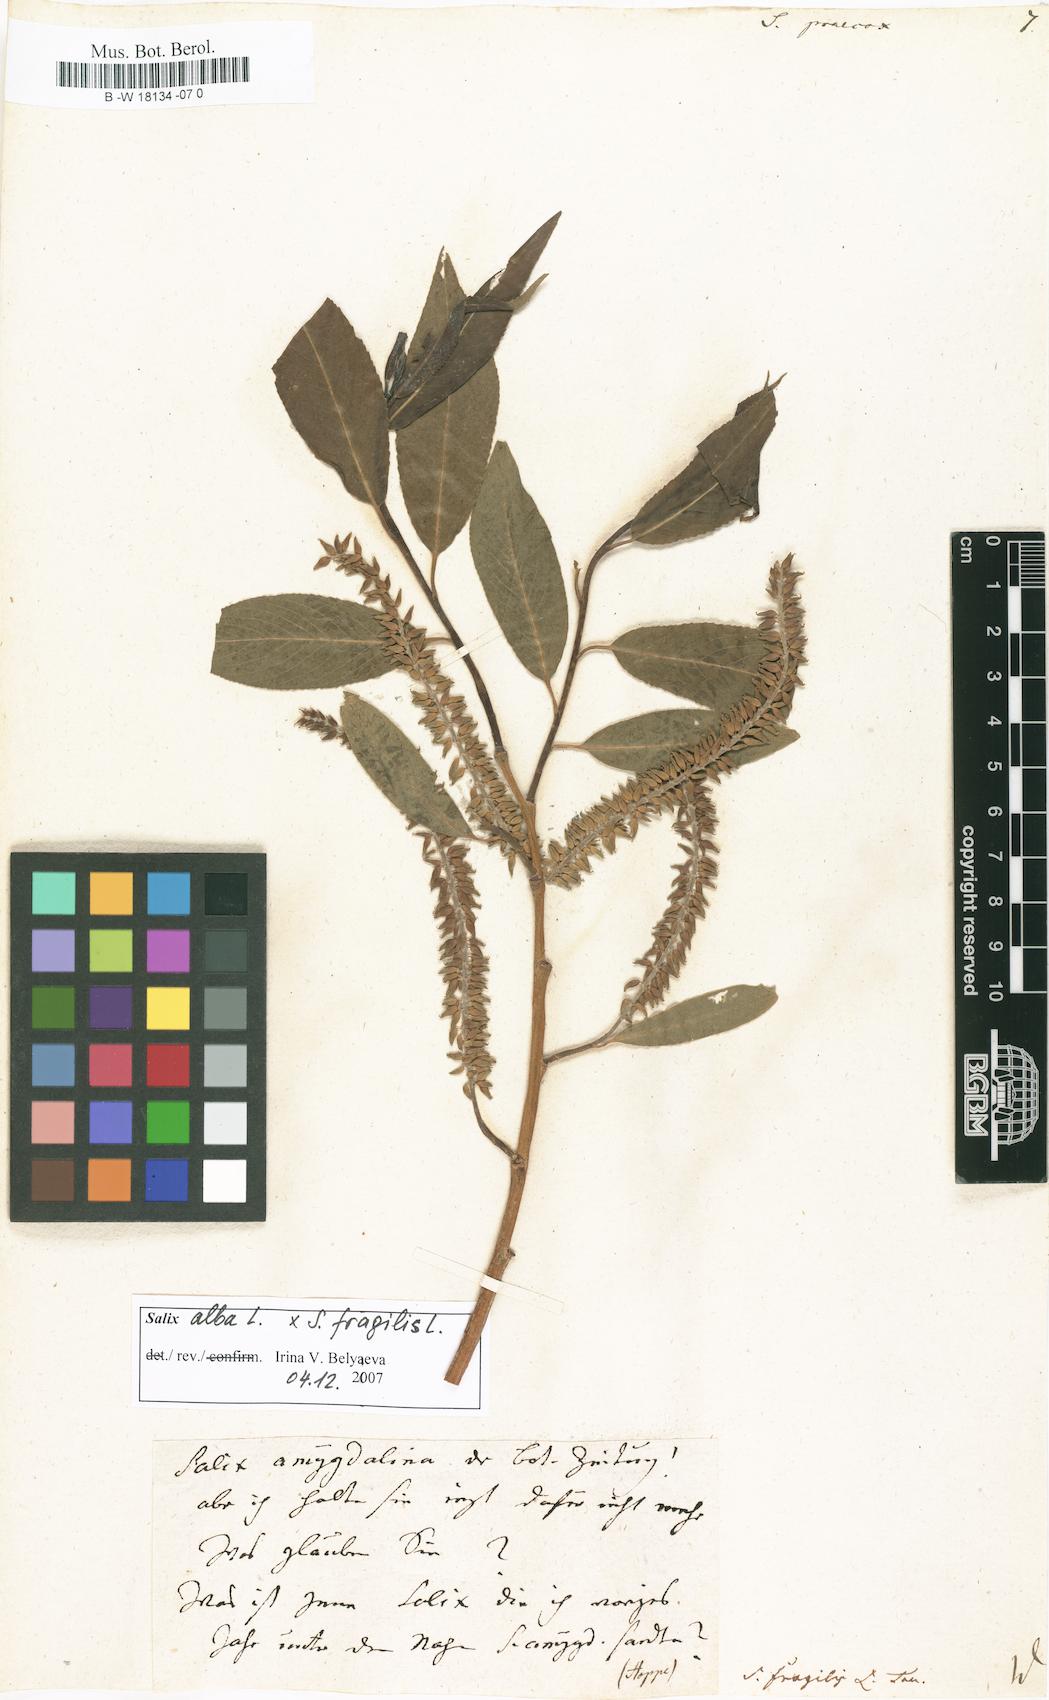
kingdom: Plantae
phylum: Tracheophyta
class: Magnoliopsida
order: Malpighiales
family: Salicaceae
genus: Salix
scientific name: Salix
